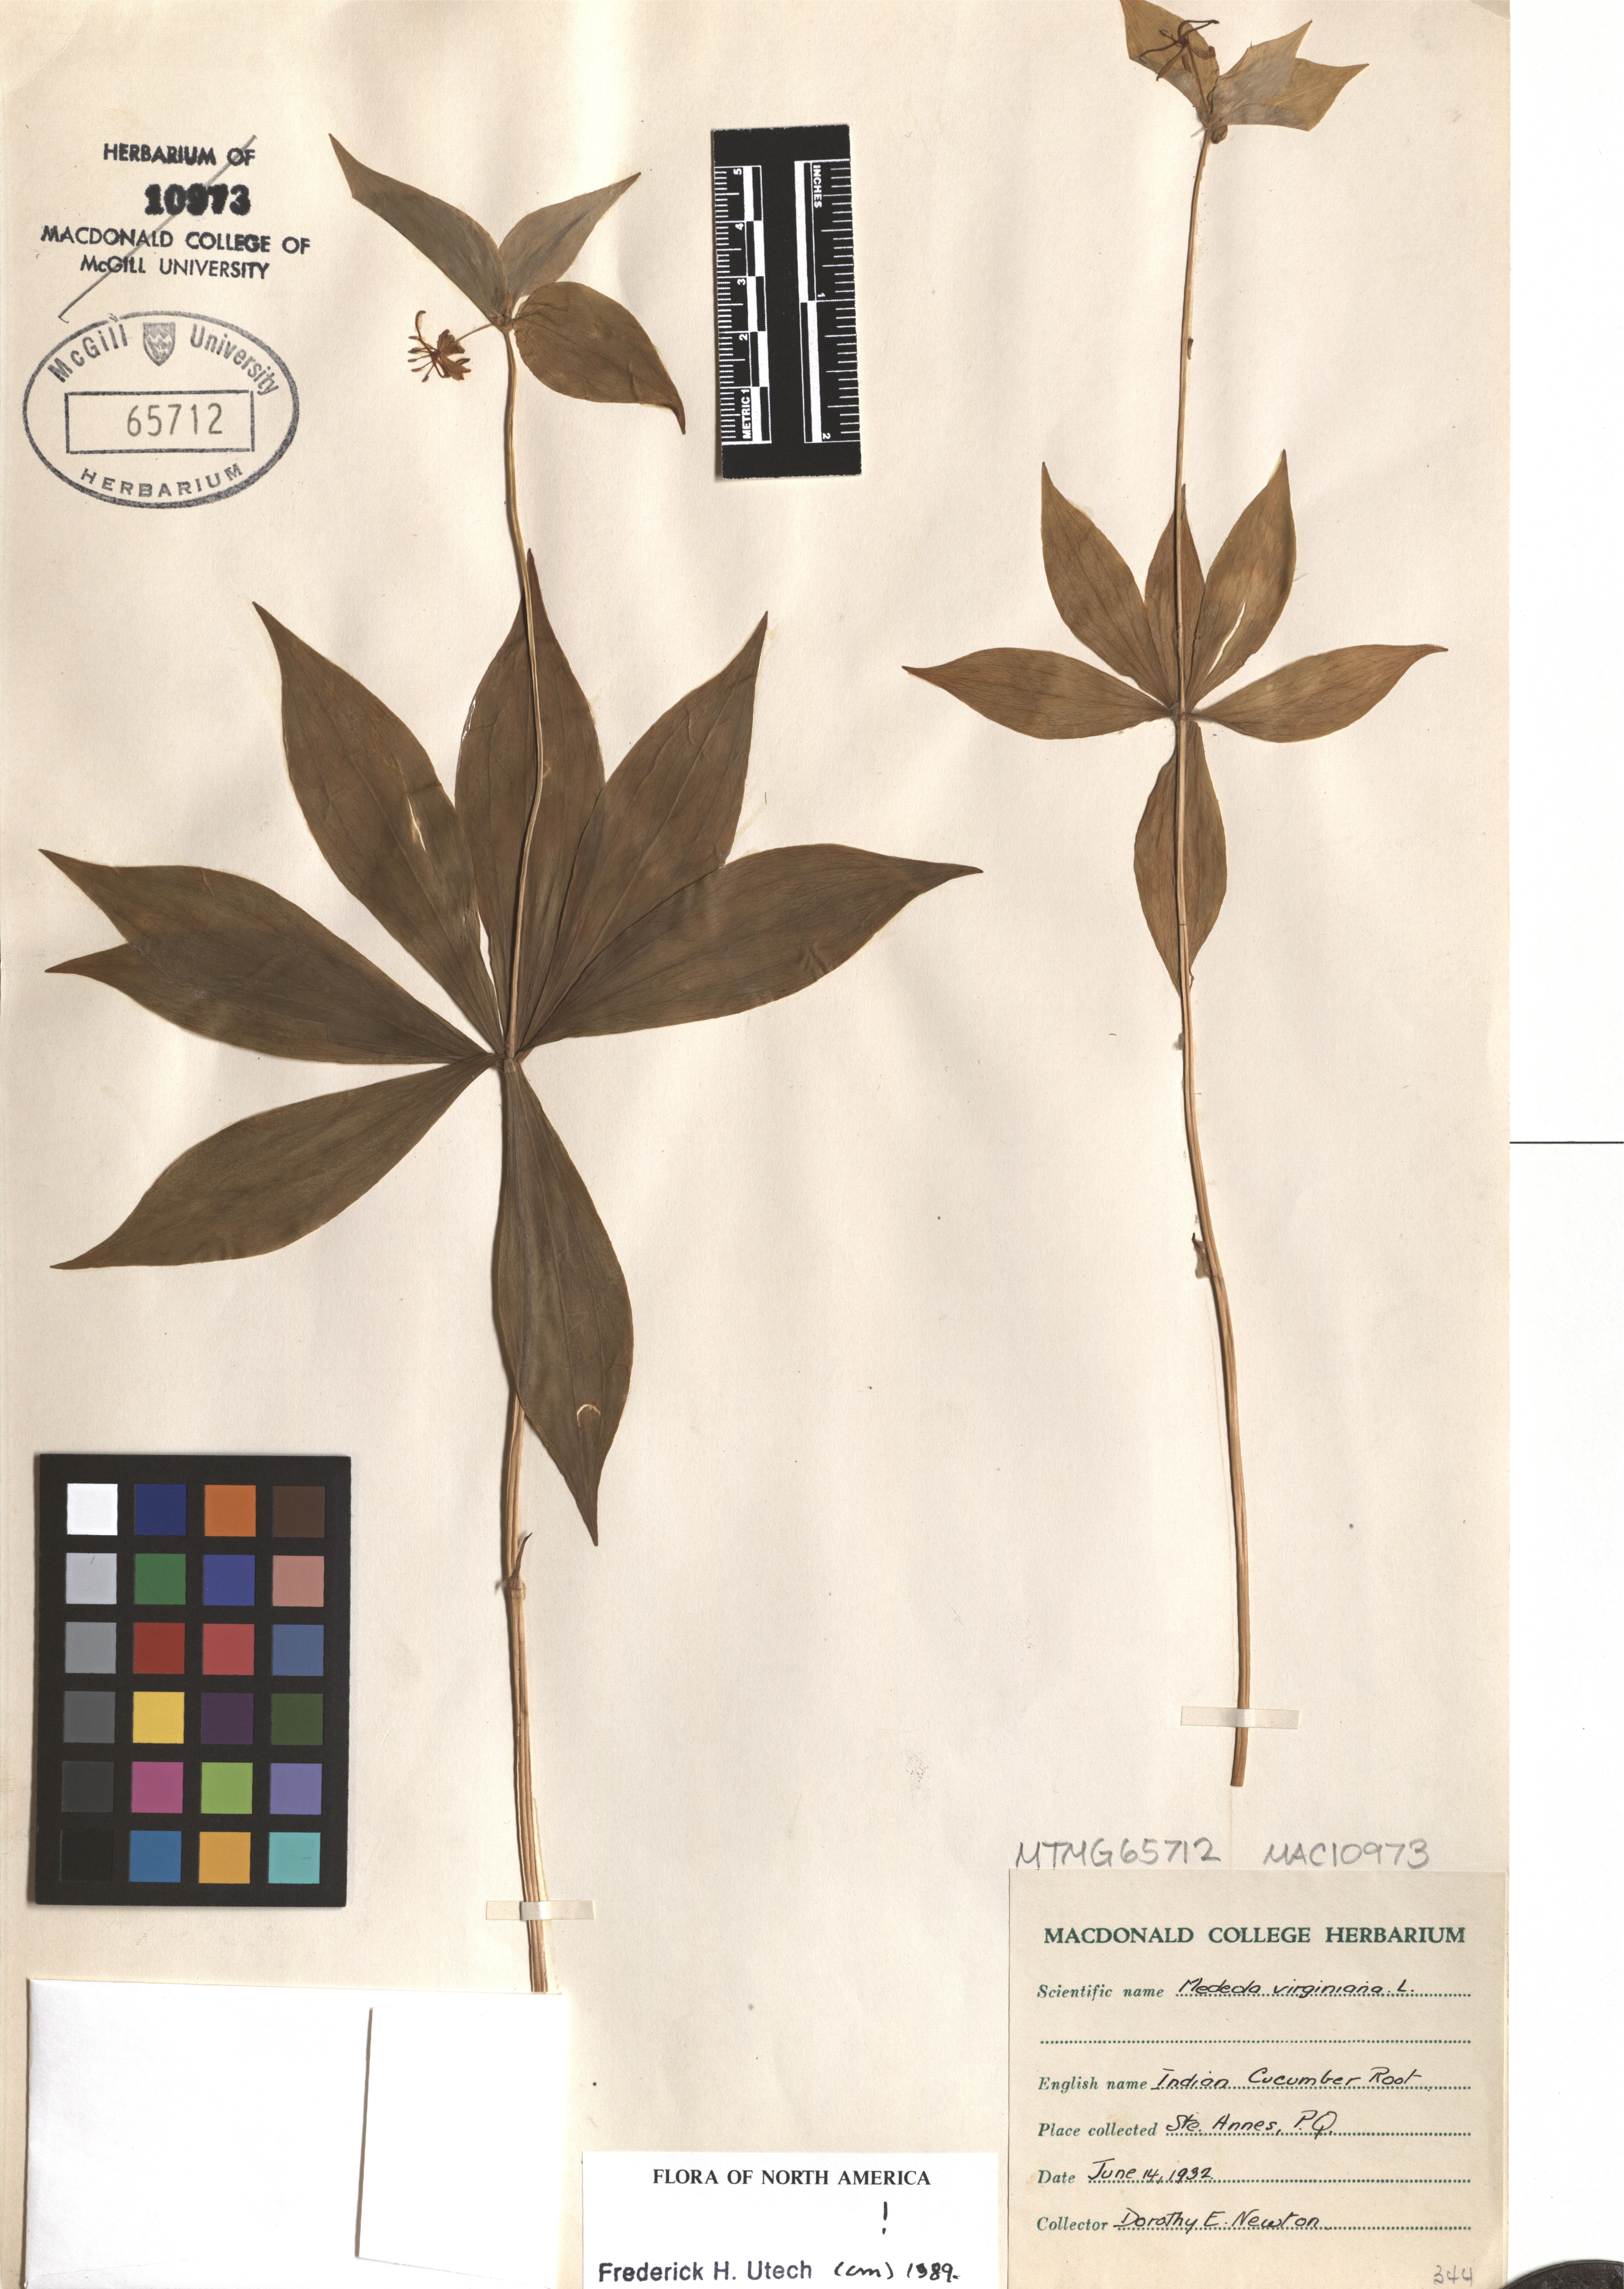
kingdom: Plantae
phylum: Tracheophyta
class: Liliopsida
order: Liliales
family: Liliaceae
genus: Medeola
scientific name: Medeola virginiana
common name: Indian cucumber-root
